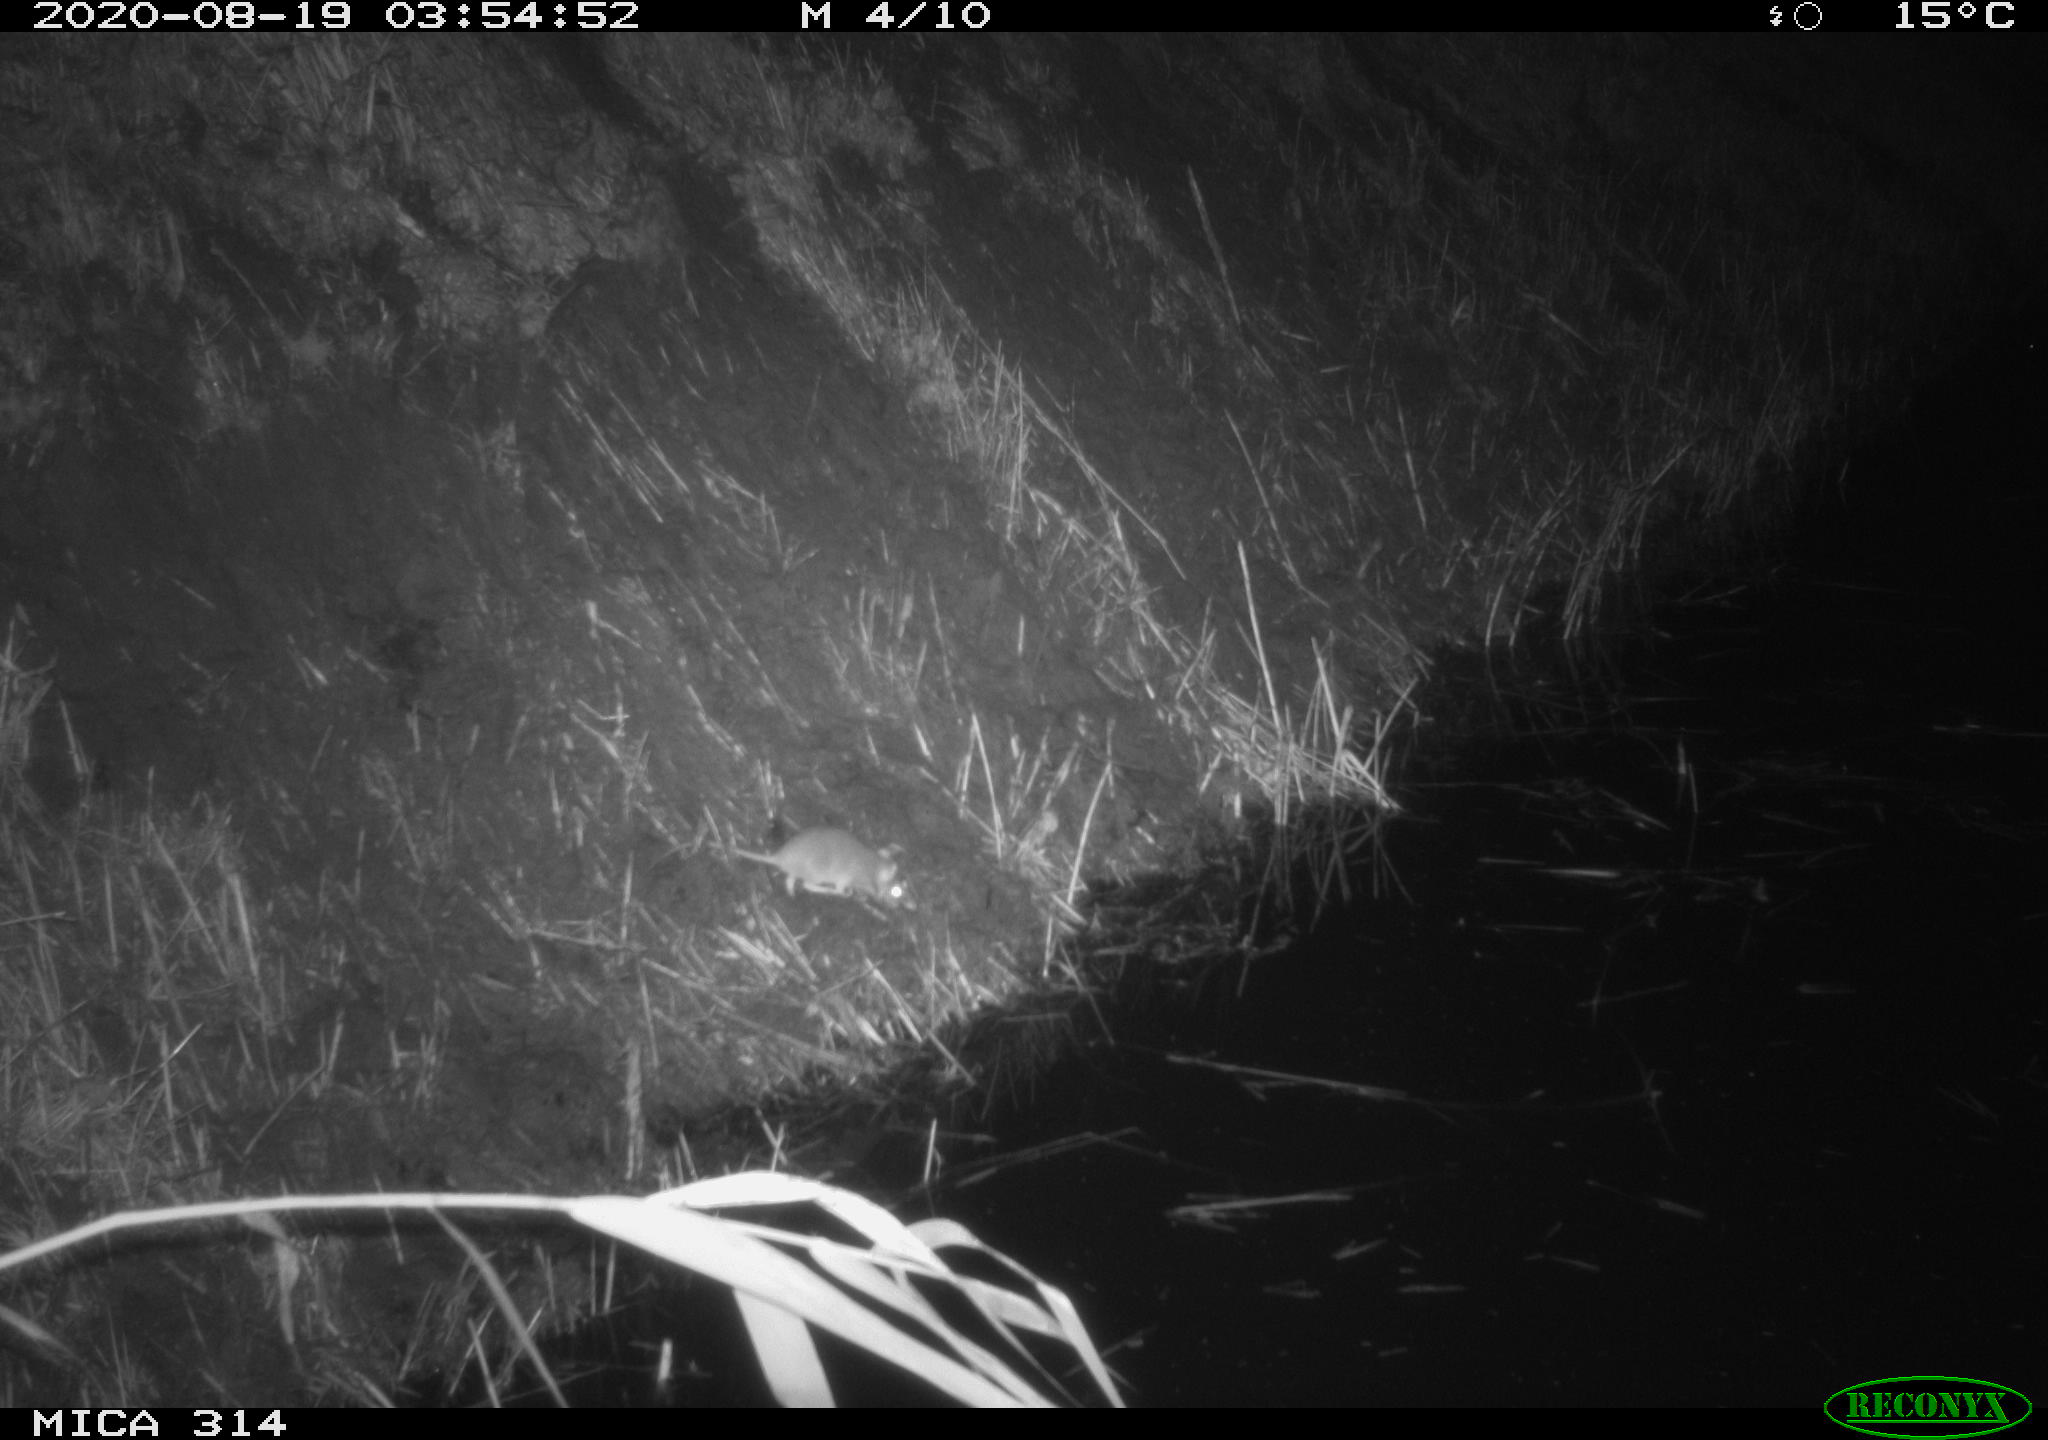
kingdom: Animalia
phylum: Chordata
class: Mammalia
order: Rodentia
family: Muridae
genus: Rattus
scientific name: Rattus norvegicus
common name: Brown rat
